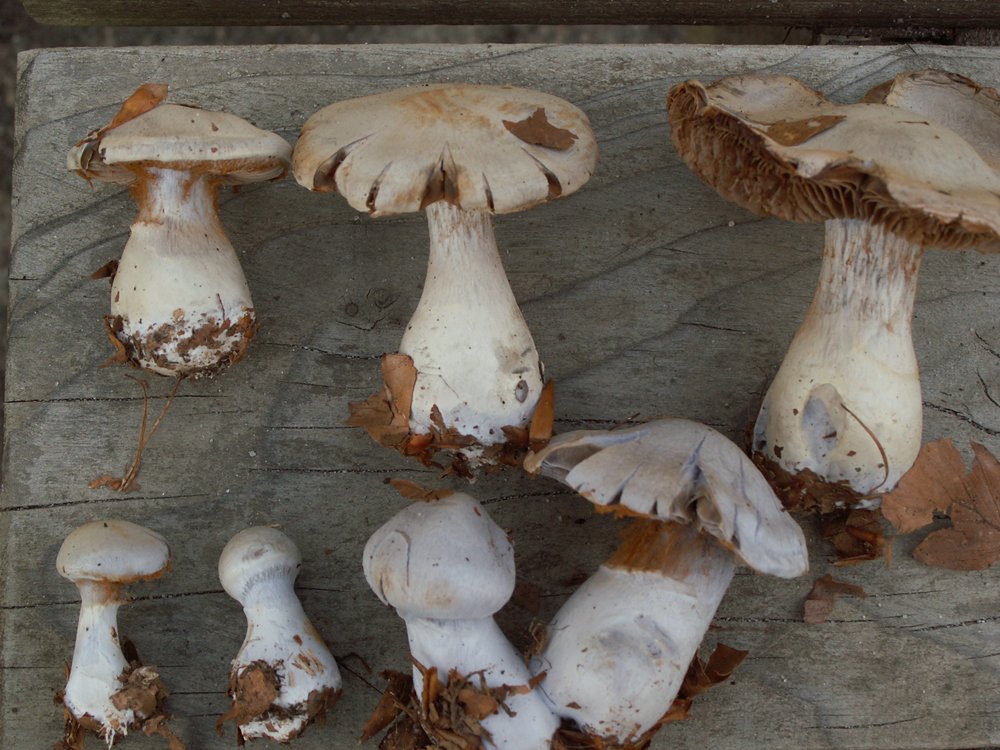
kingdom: Fungi
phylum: Basidiomycota
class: Agaricomycetes
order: Agaricales
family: Cortinariaceae
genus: Cortinarius
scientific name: Cortinarius alboviolaceus
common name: lysviolet slørhat
